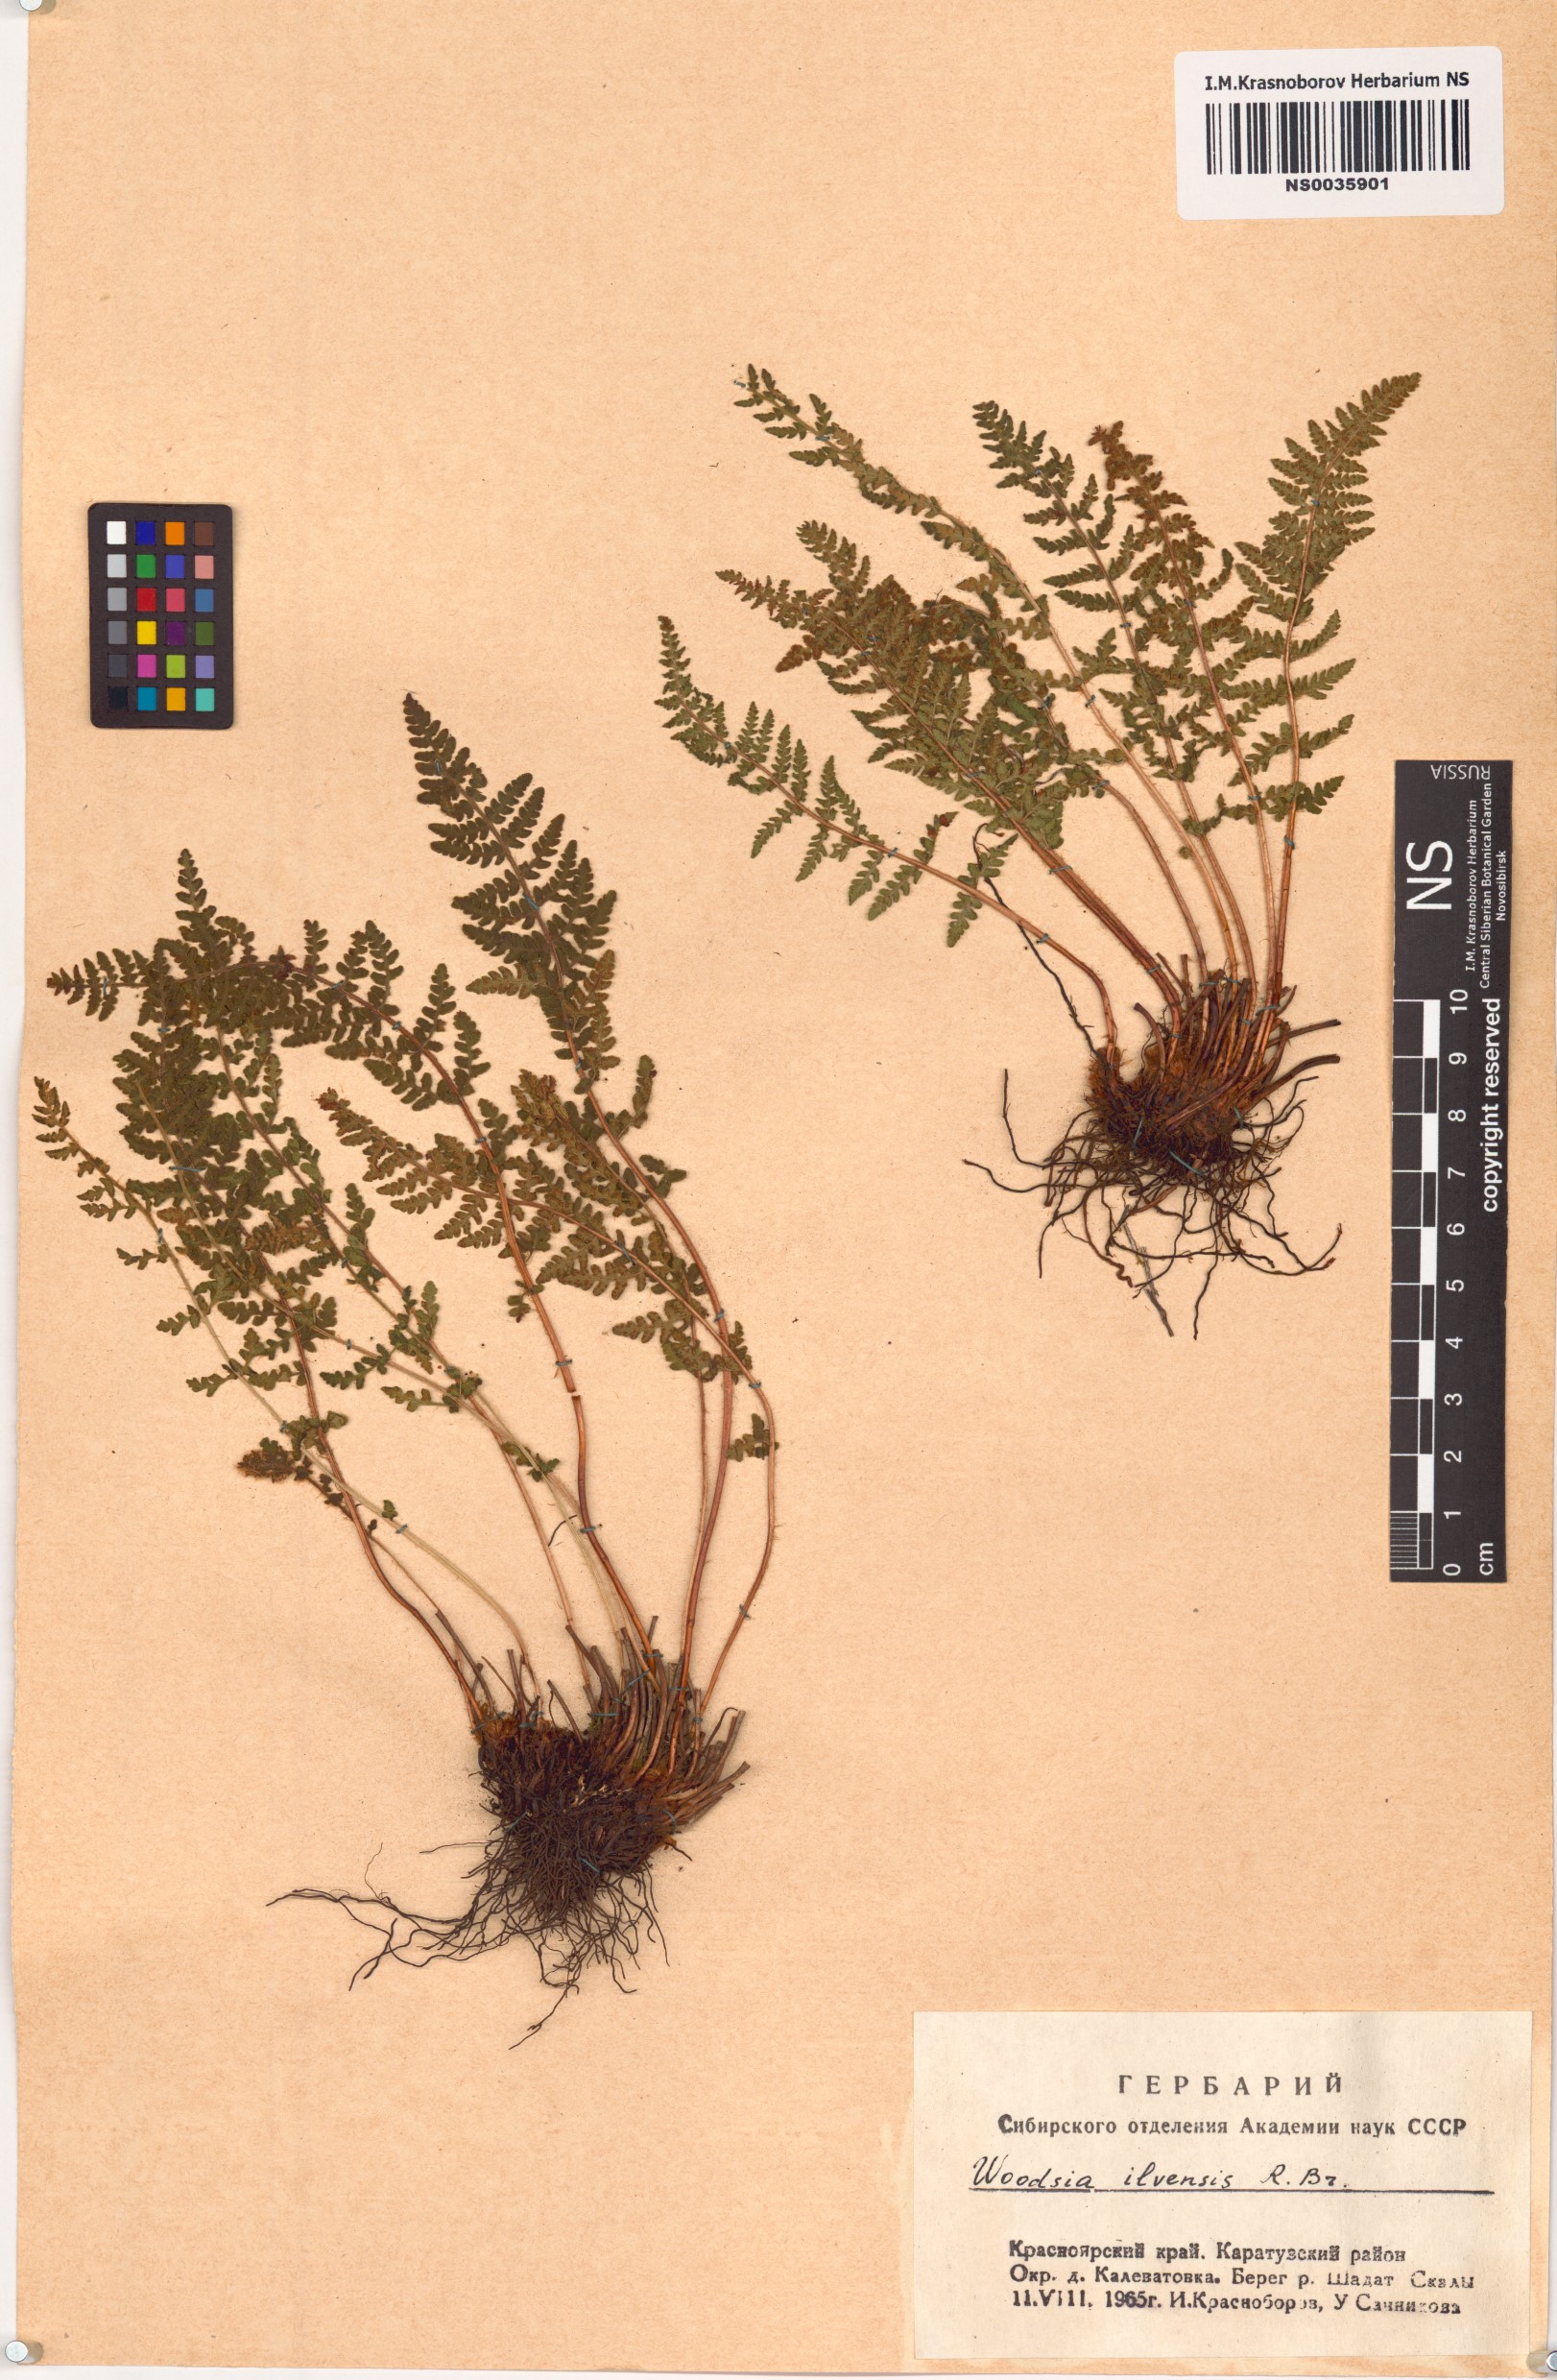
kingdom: Plantae
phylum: Tracheophyta
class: Polypodiopsida
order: Polypodiales
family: Woodsiaceae
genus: Woodsia
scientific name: Woodsia ilvensis
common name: Fragrant woodsia
